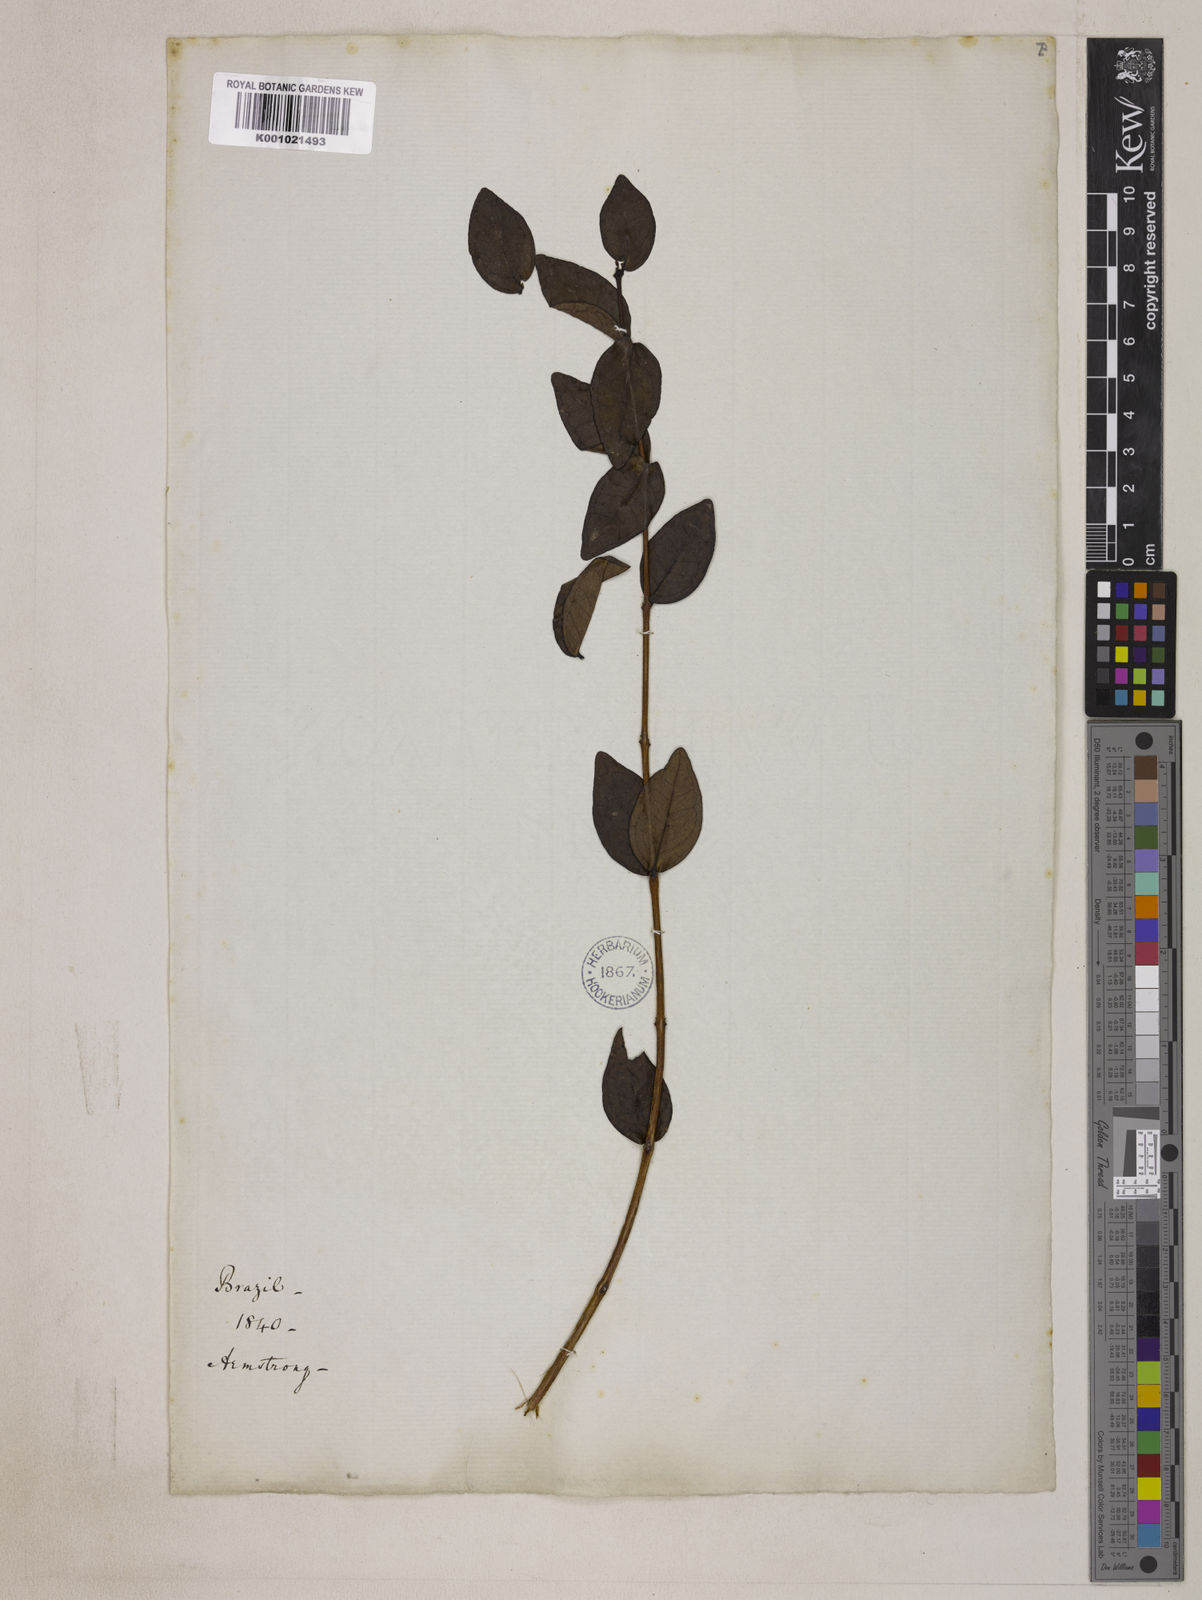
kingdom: Plantae
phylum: Tracheophyta
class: Magnoliopsida
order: Myrtales
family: Myrtaceae
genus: Eugenia
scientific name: Eugenia hiemalis
